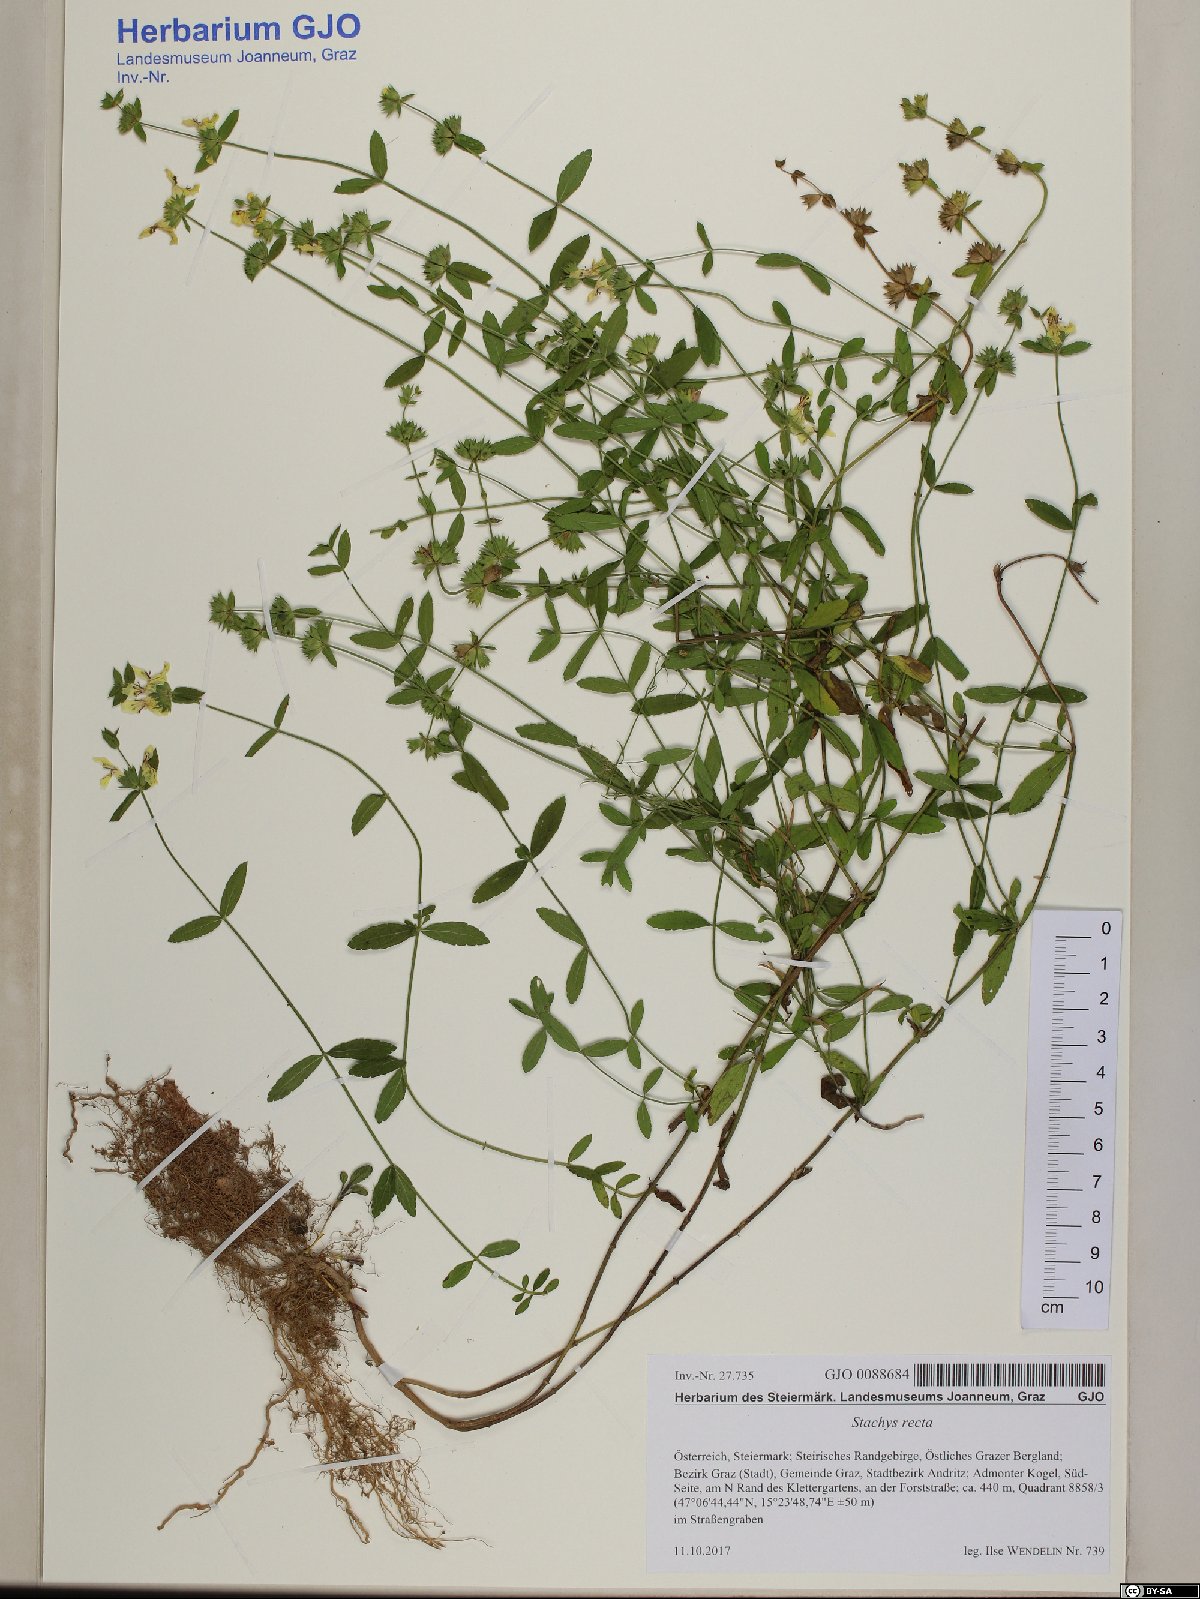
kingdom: Plantae
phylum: Tracheophyta
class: Magnoliopsida
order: Lamiales
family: Lamiaceae
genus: Stachys
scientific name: Stachys recta
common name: Perennial yellow-woundwort
